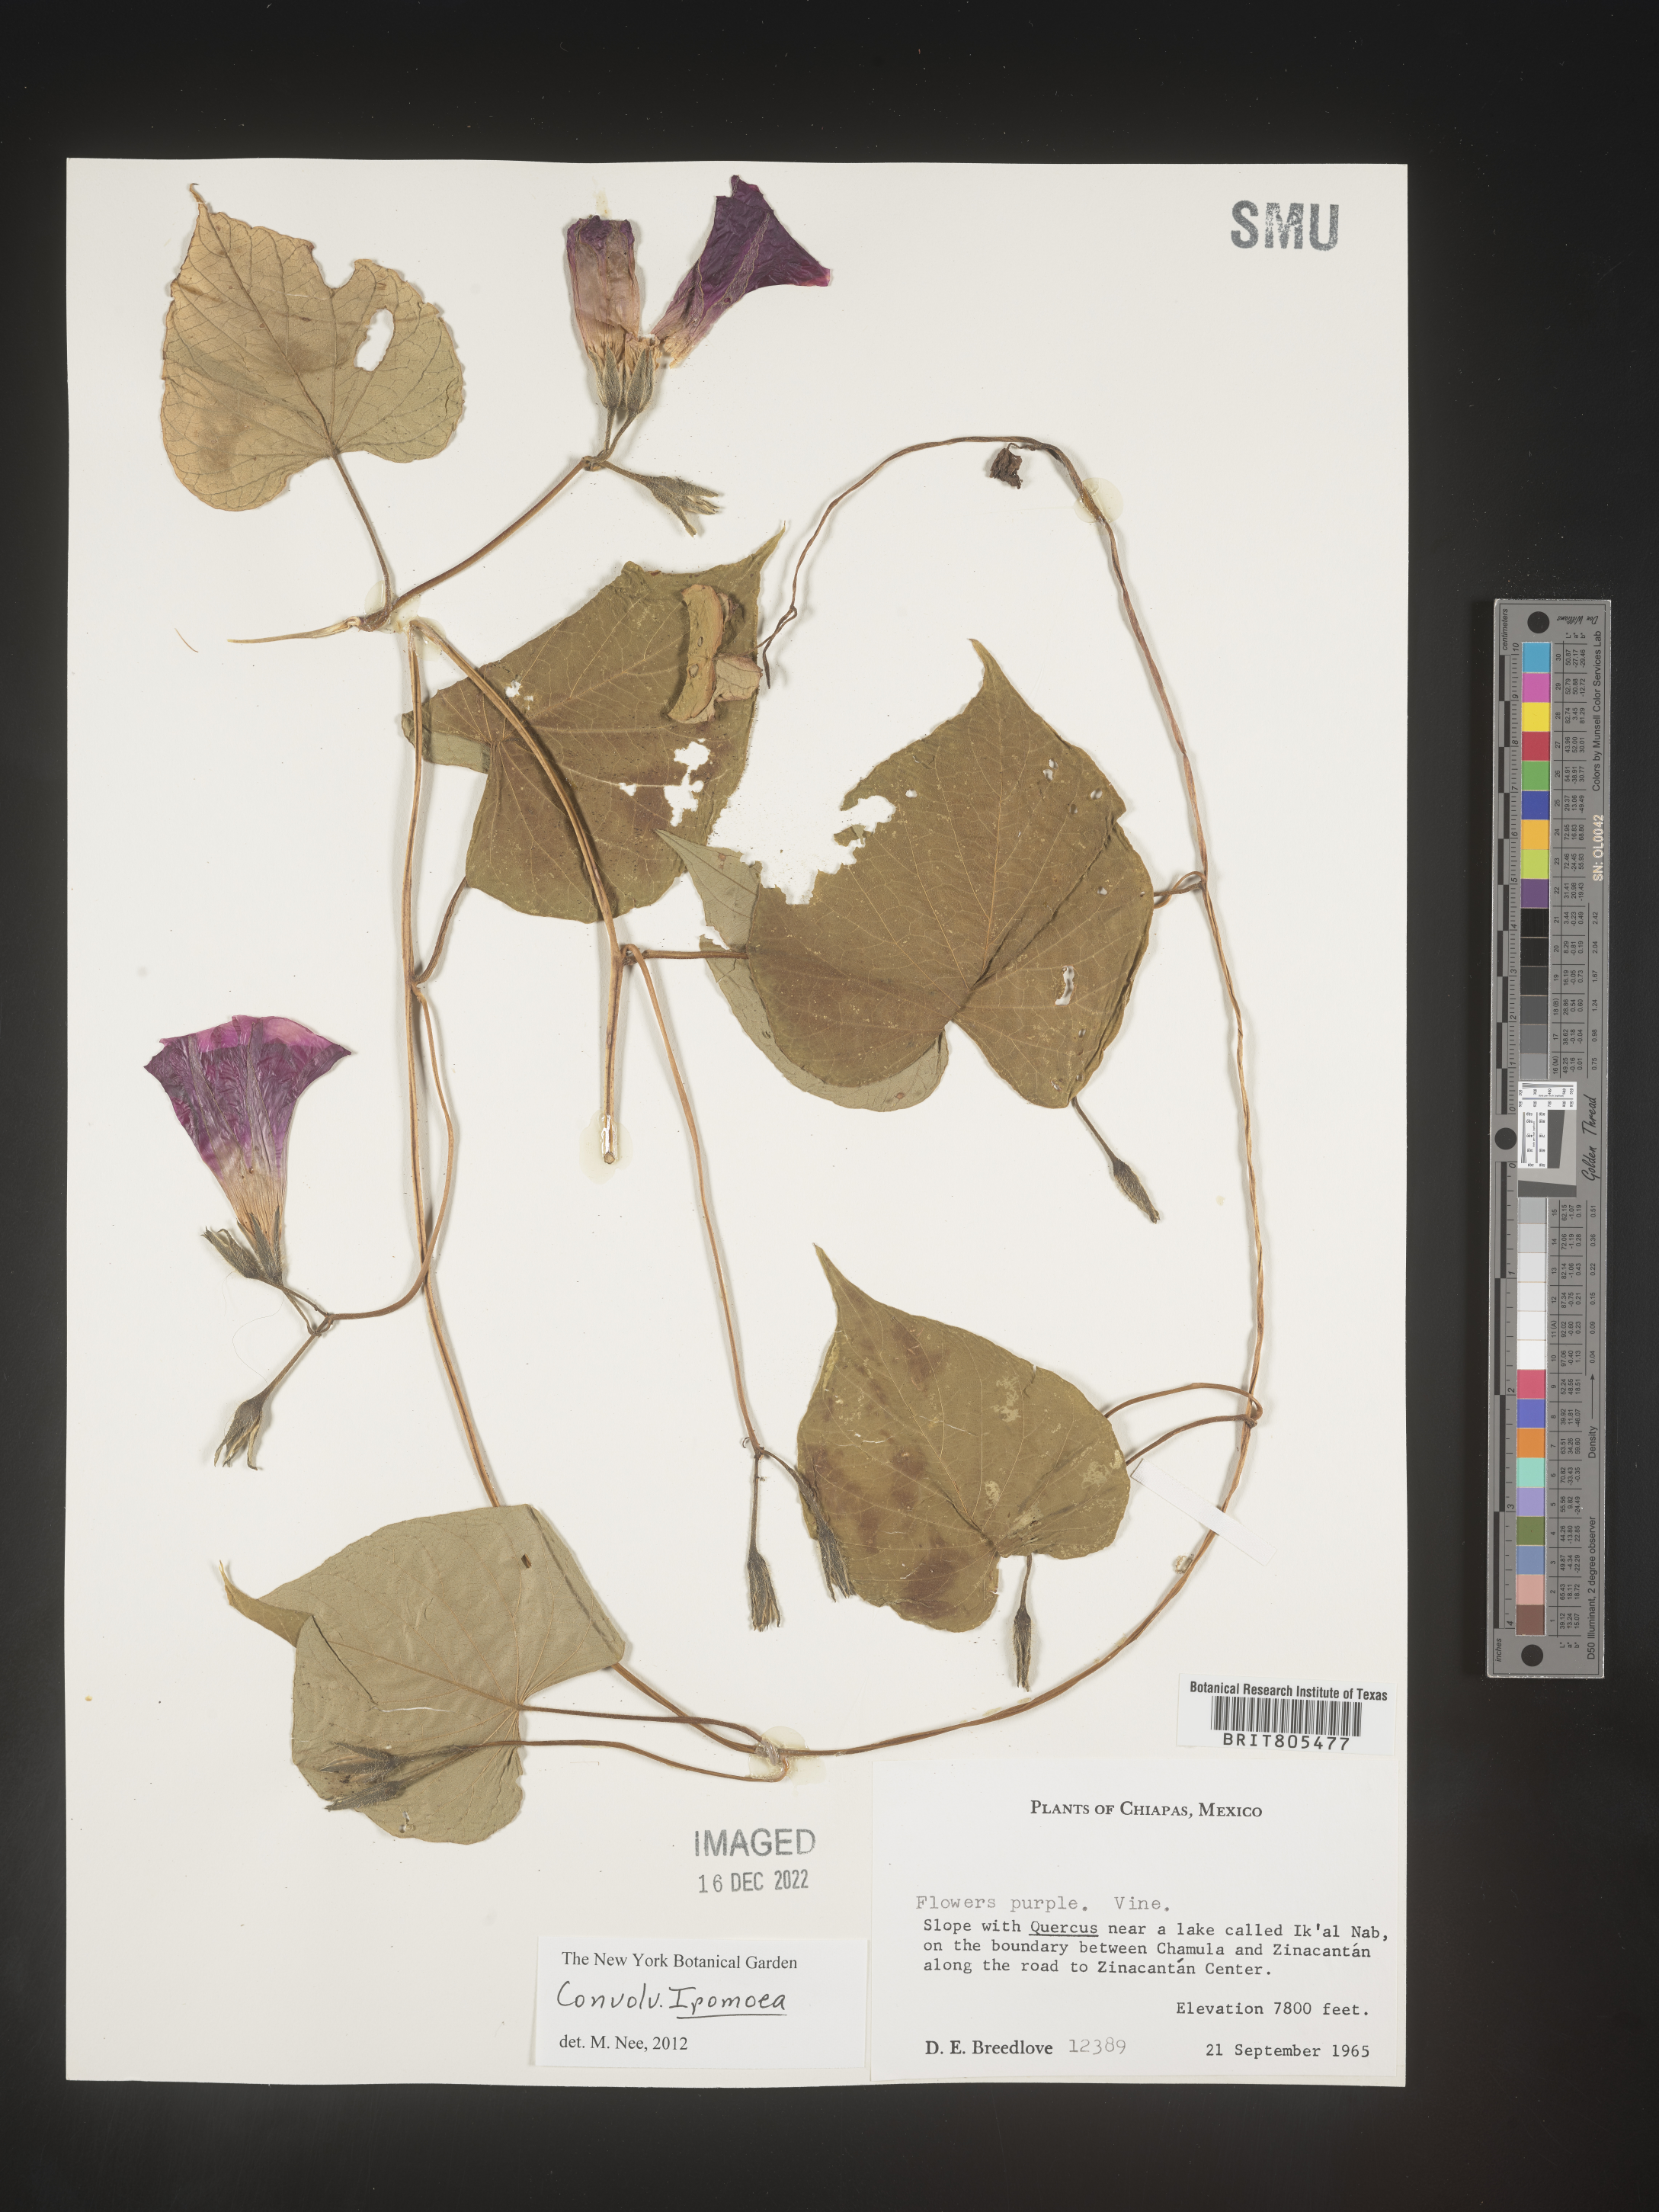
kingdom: Plantae
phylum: Tracheophyta
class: Magnoliopsida
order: Solanales
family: Convolvulaceae
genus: Ipomoea
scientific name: Ipomoea
